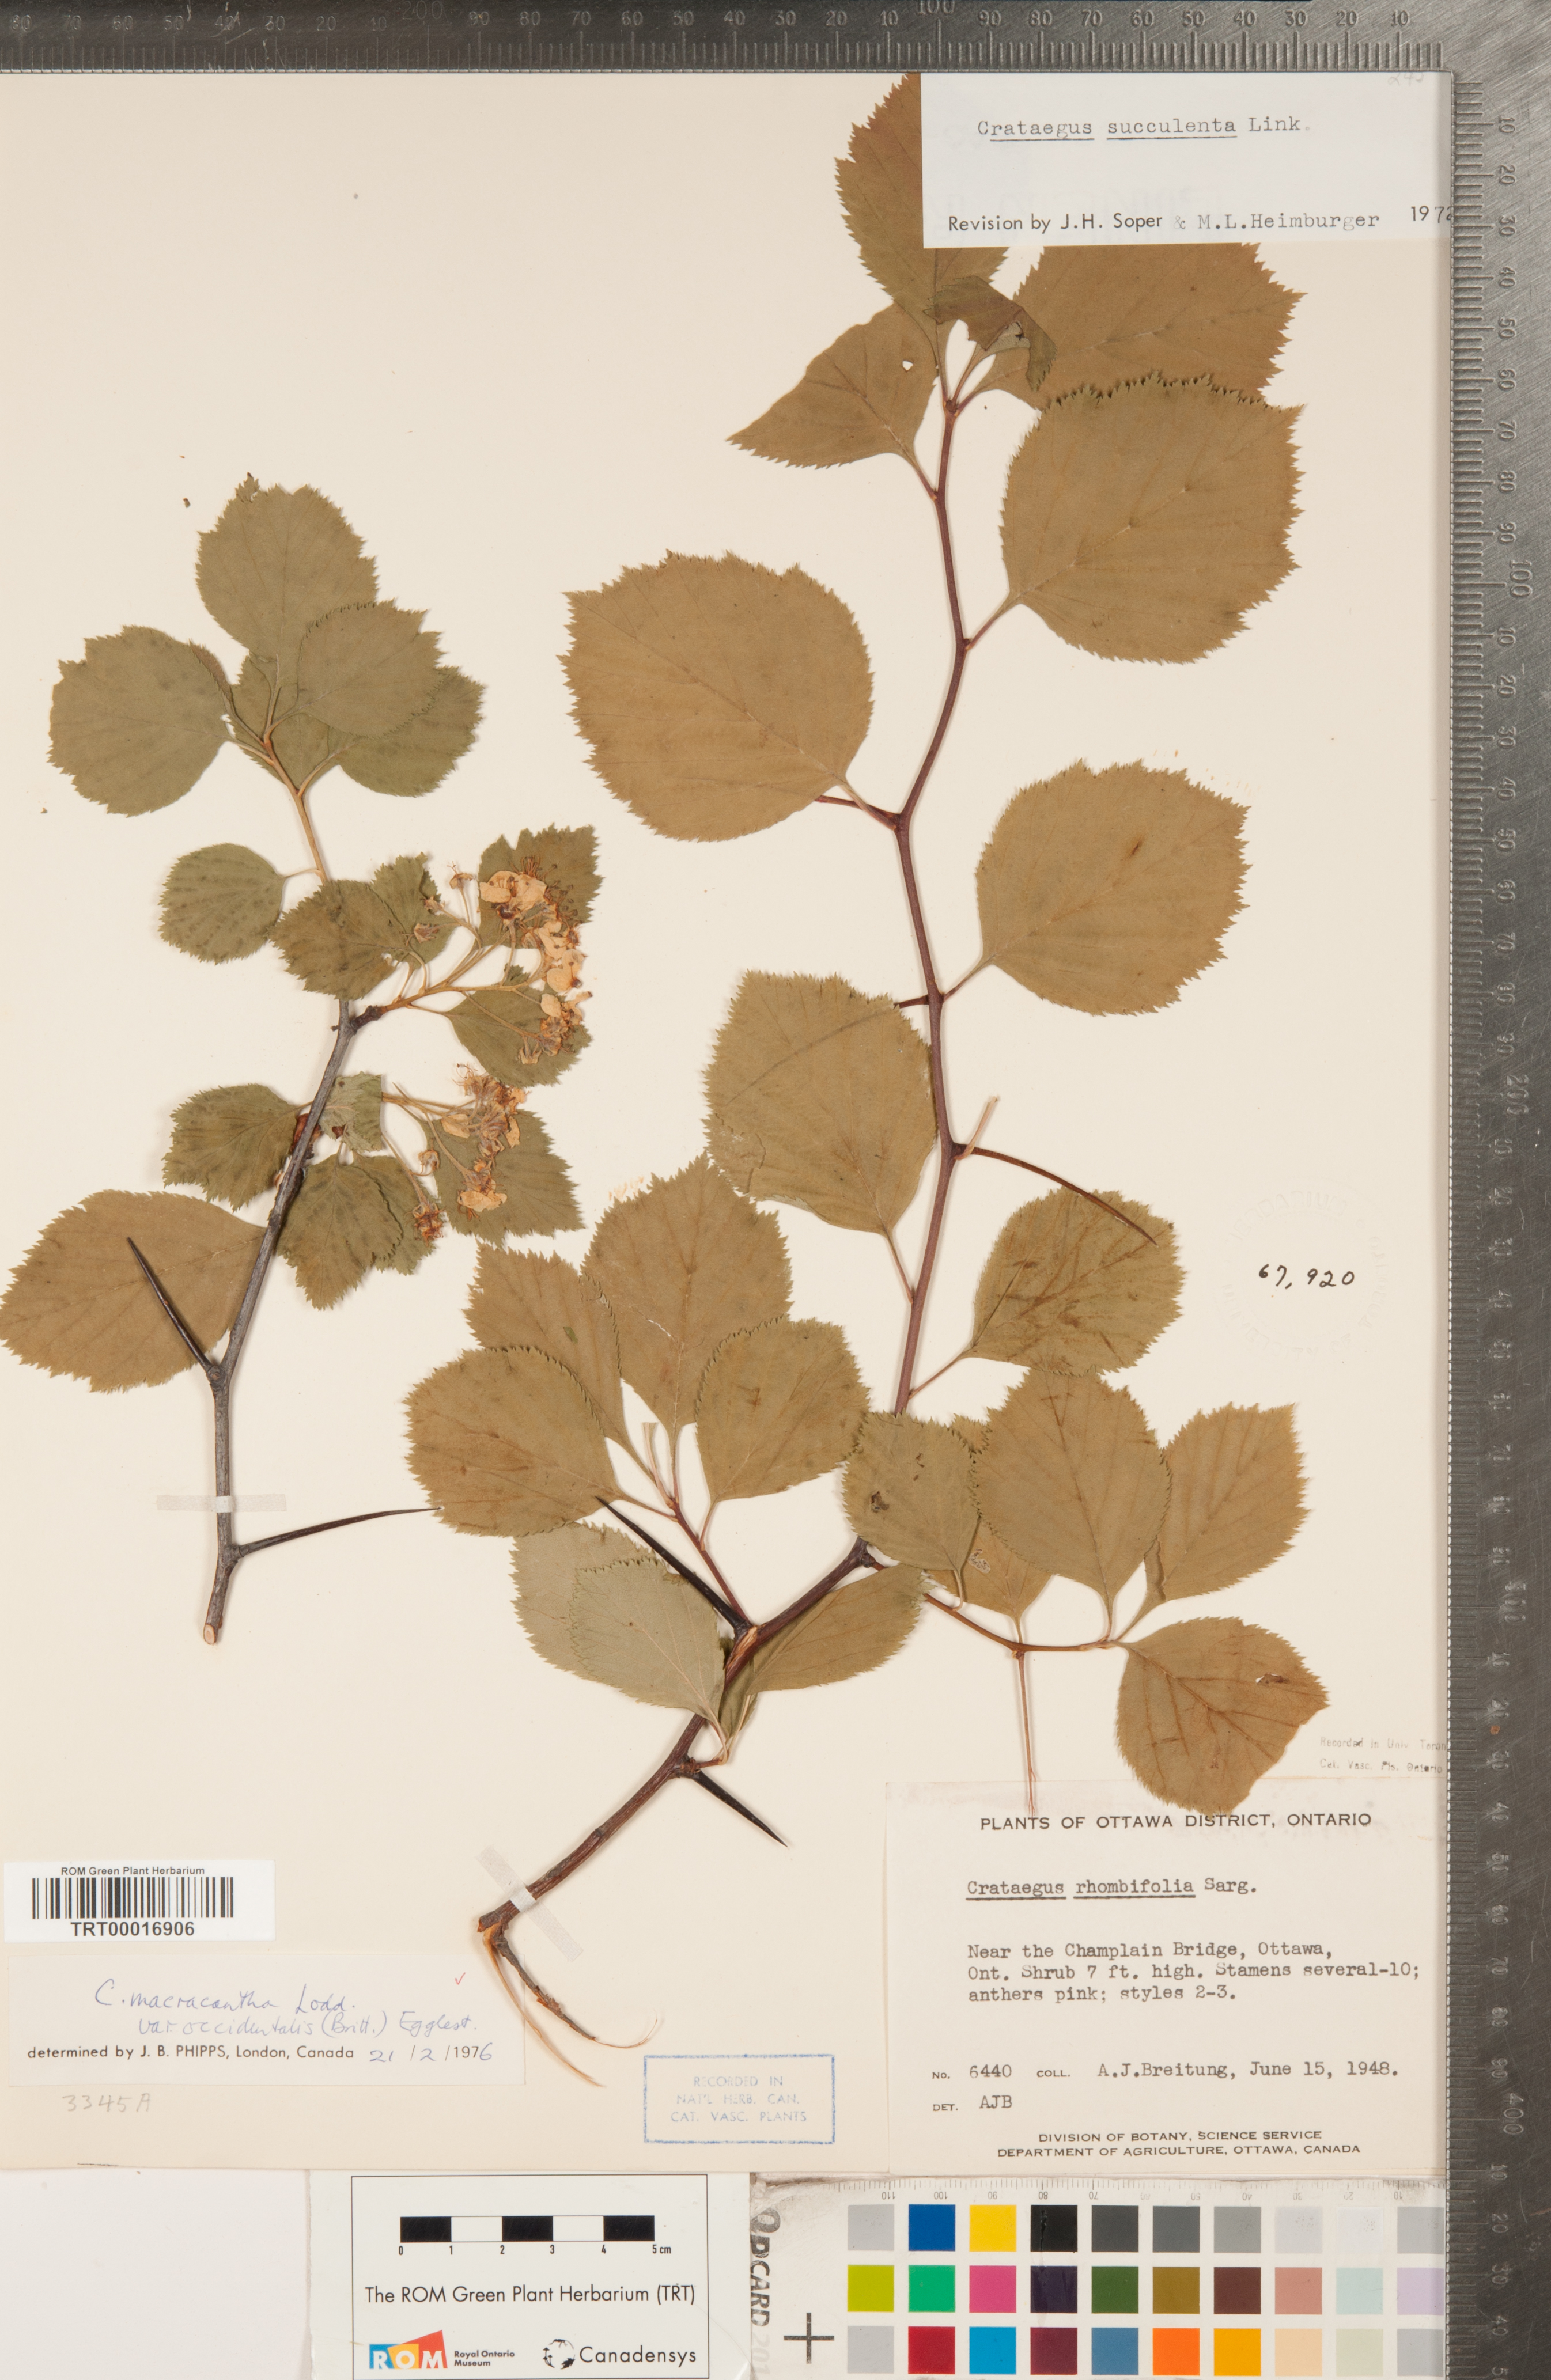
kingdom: Plantae
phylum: Tracheophyta
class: Magnoliopsida
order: Rosales
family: Rosaceae
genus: Crataegus
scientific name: Crataegus macracantha
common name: Large-thorn hawthorn
